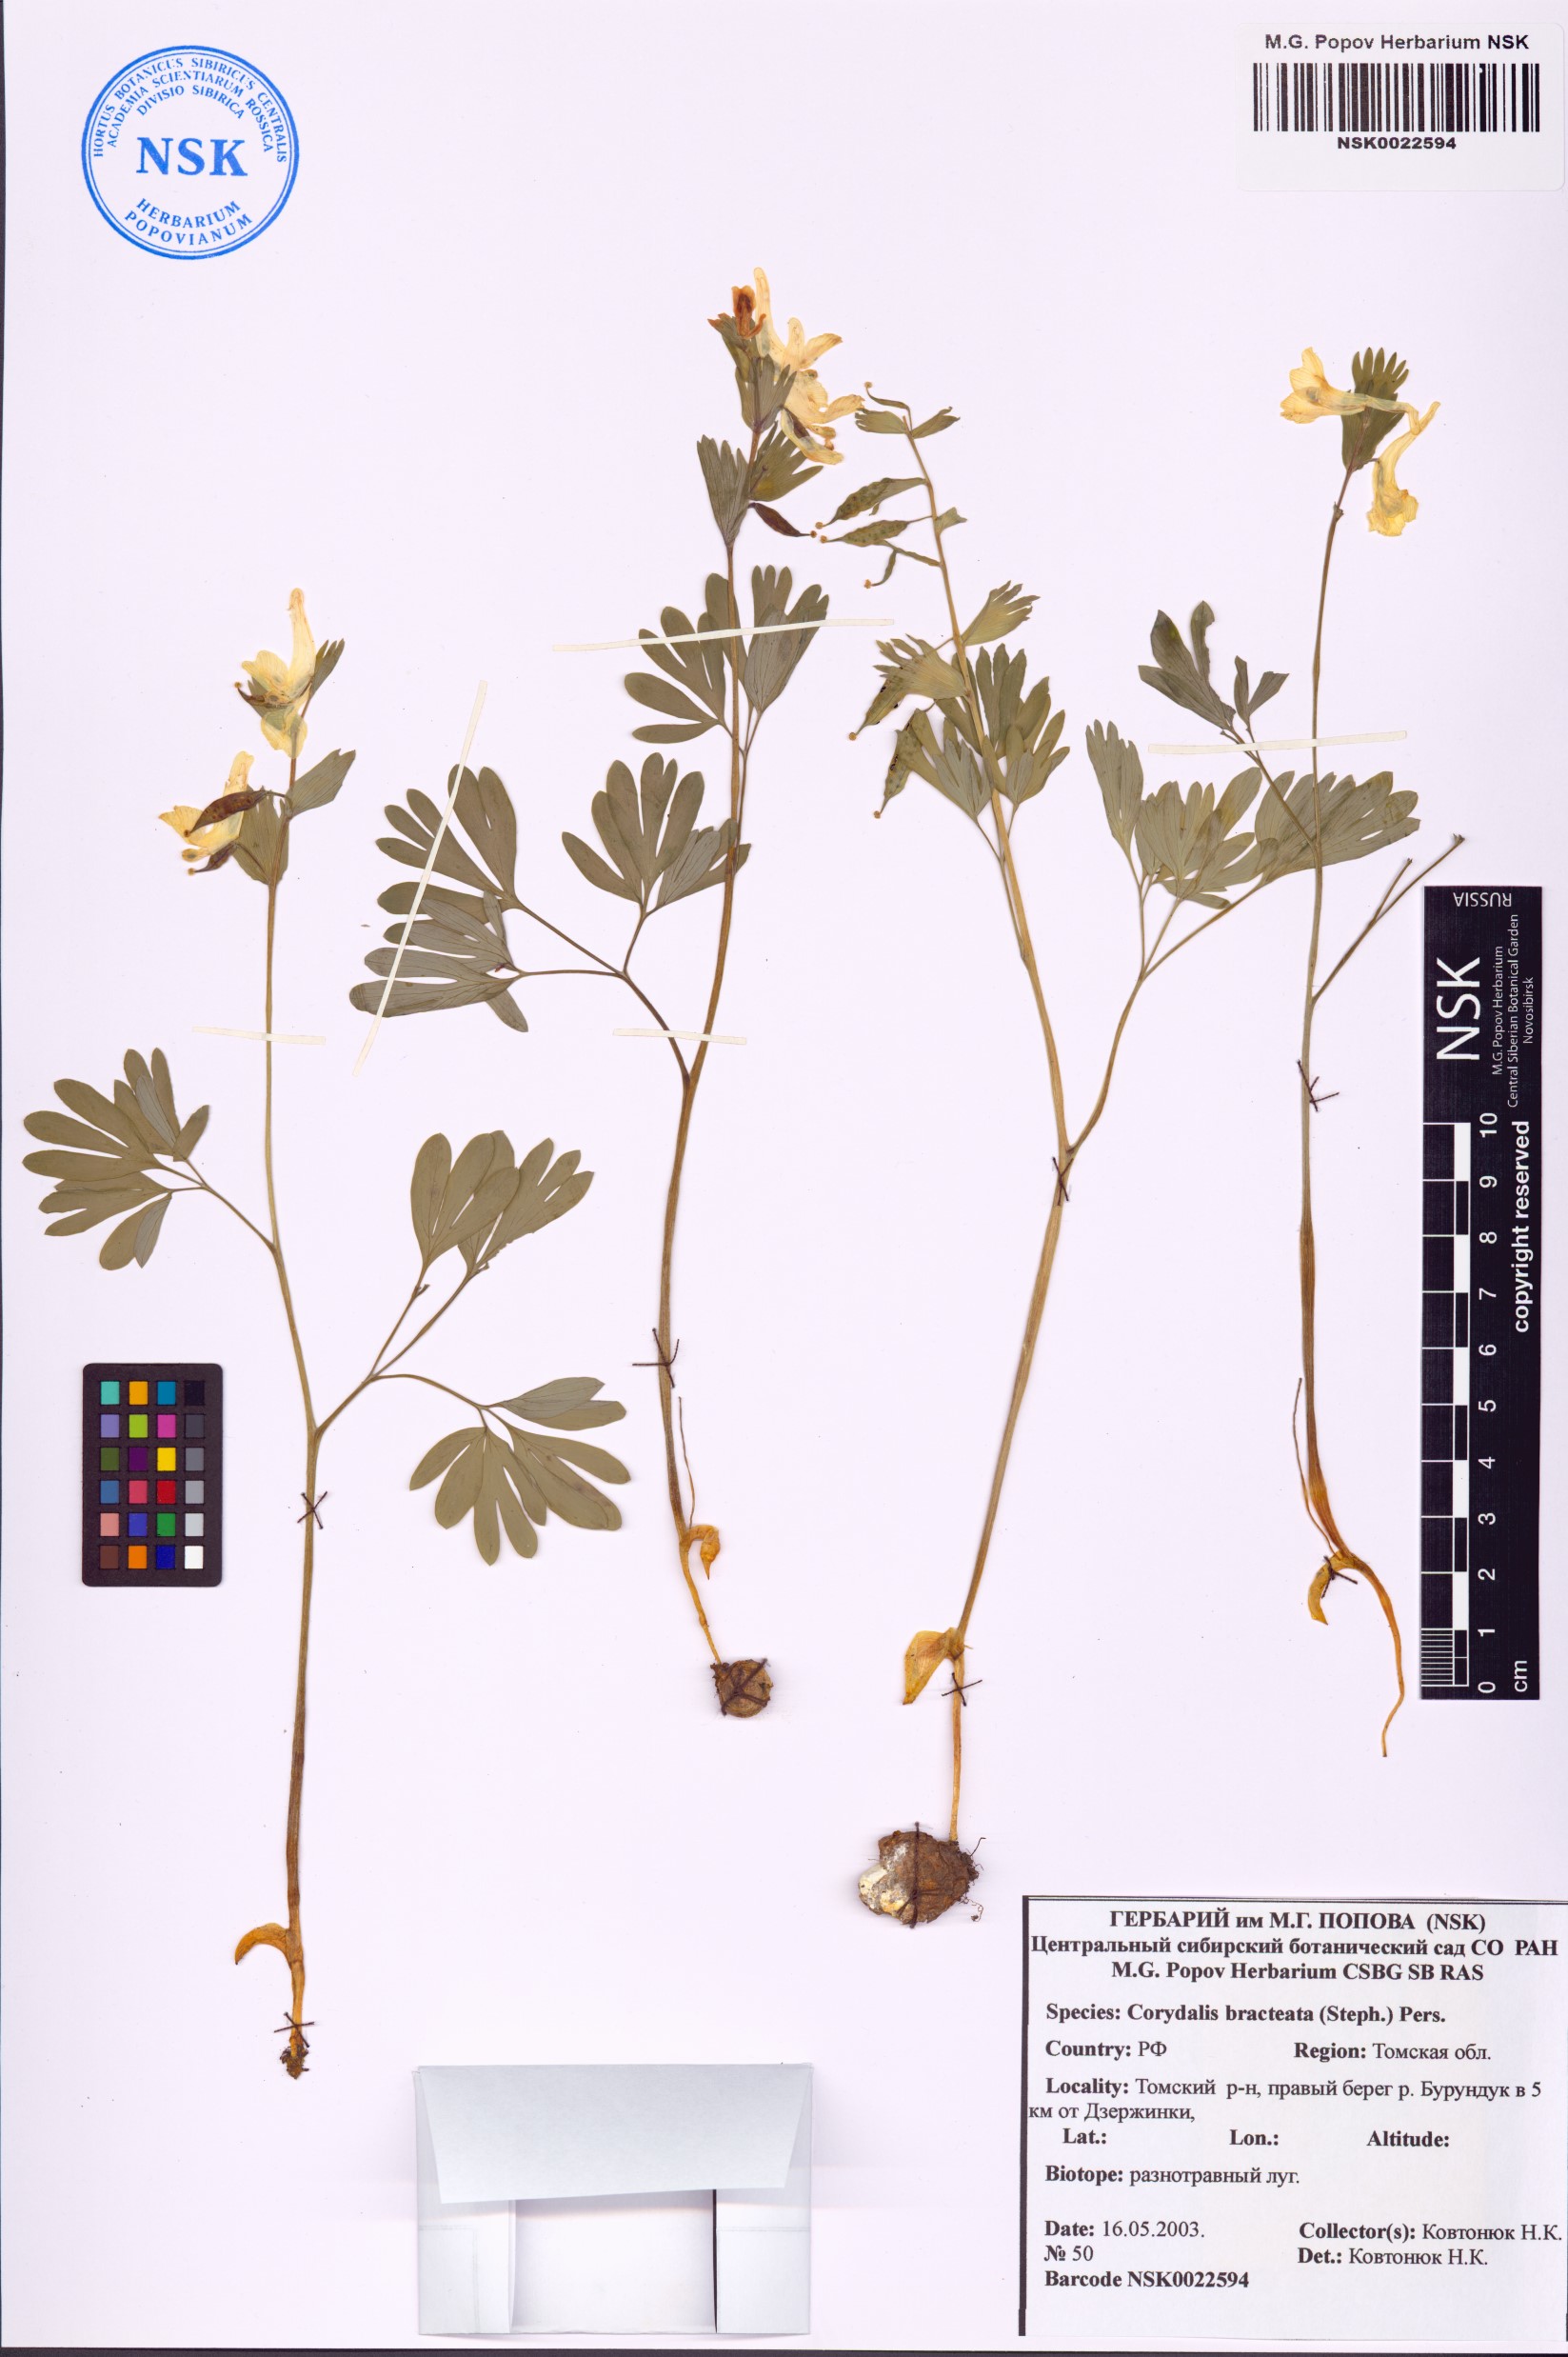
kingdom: Plantae
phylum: Tracheophyta
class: Magnoliopsida
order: Ranunculales
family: Papaveraceae
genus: Corydalis
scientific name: Corydalis bracteata
